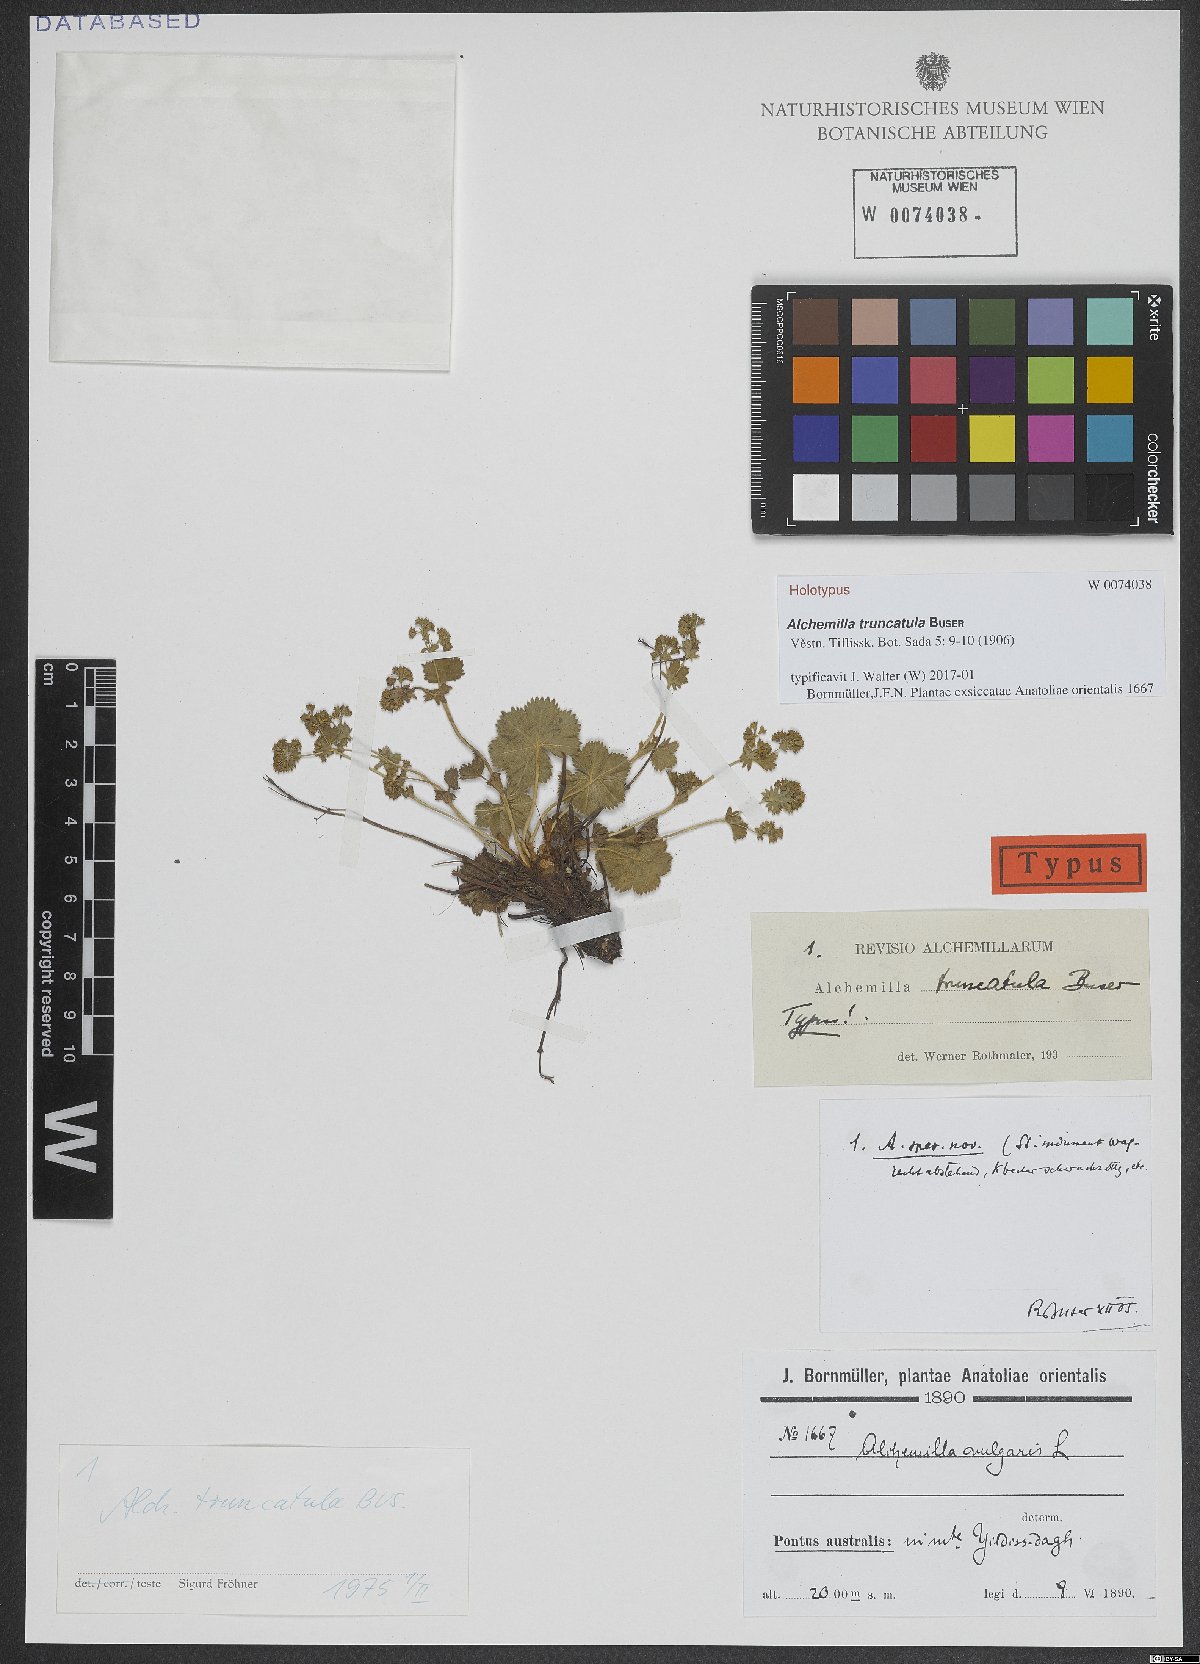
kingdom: Plantae
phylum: Tracheophyta
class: Magnoliopsida
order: Rosales
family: Rosaceae
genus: Alchemilla
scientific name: Alchemilla truncatula
